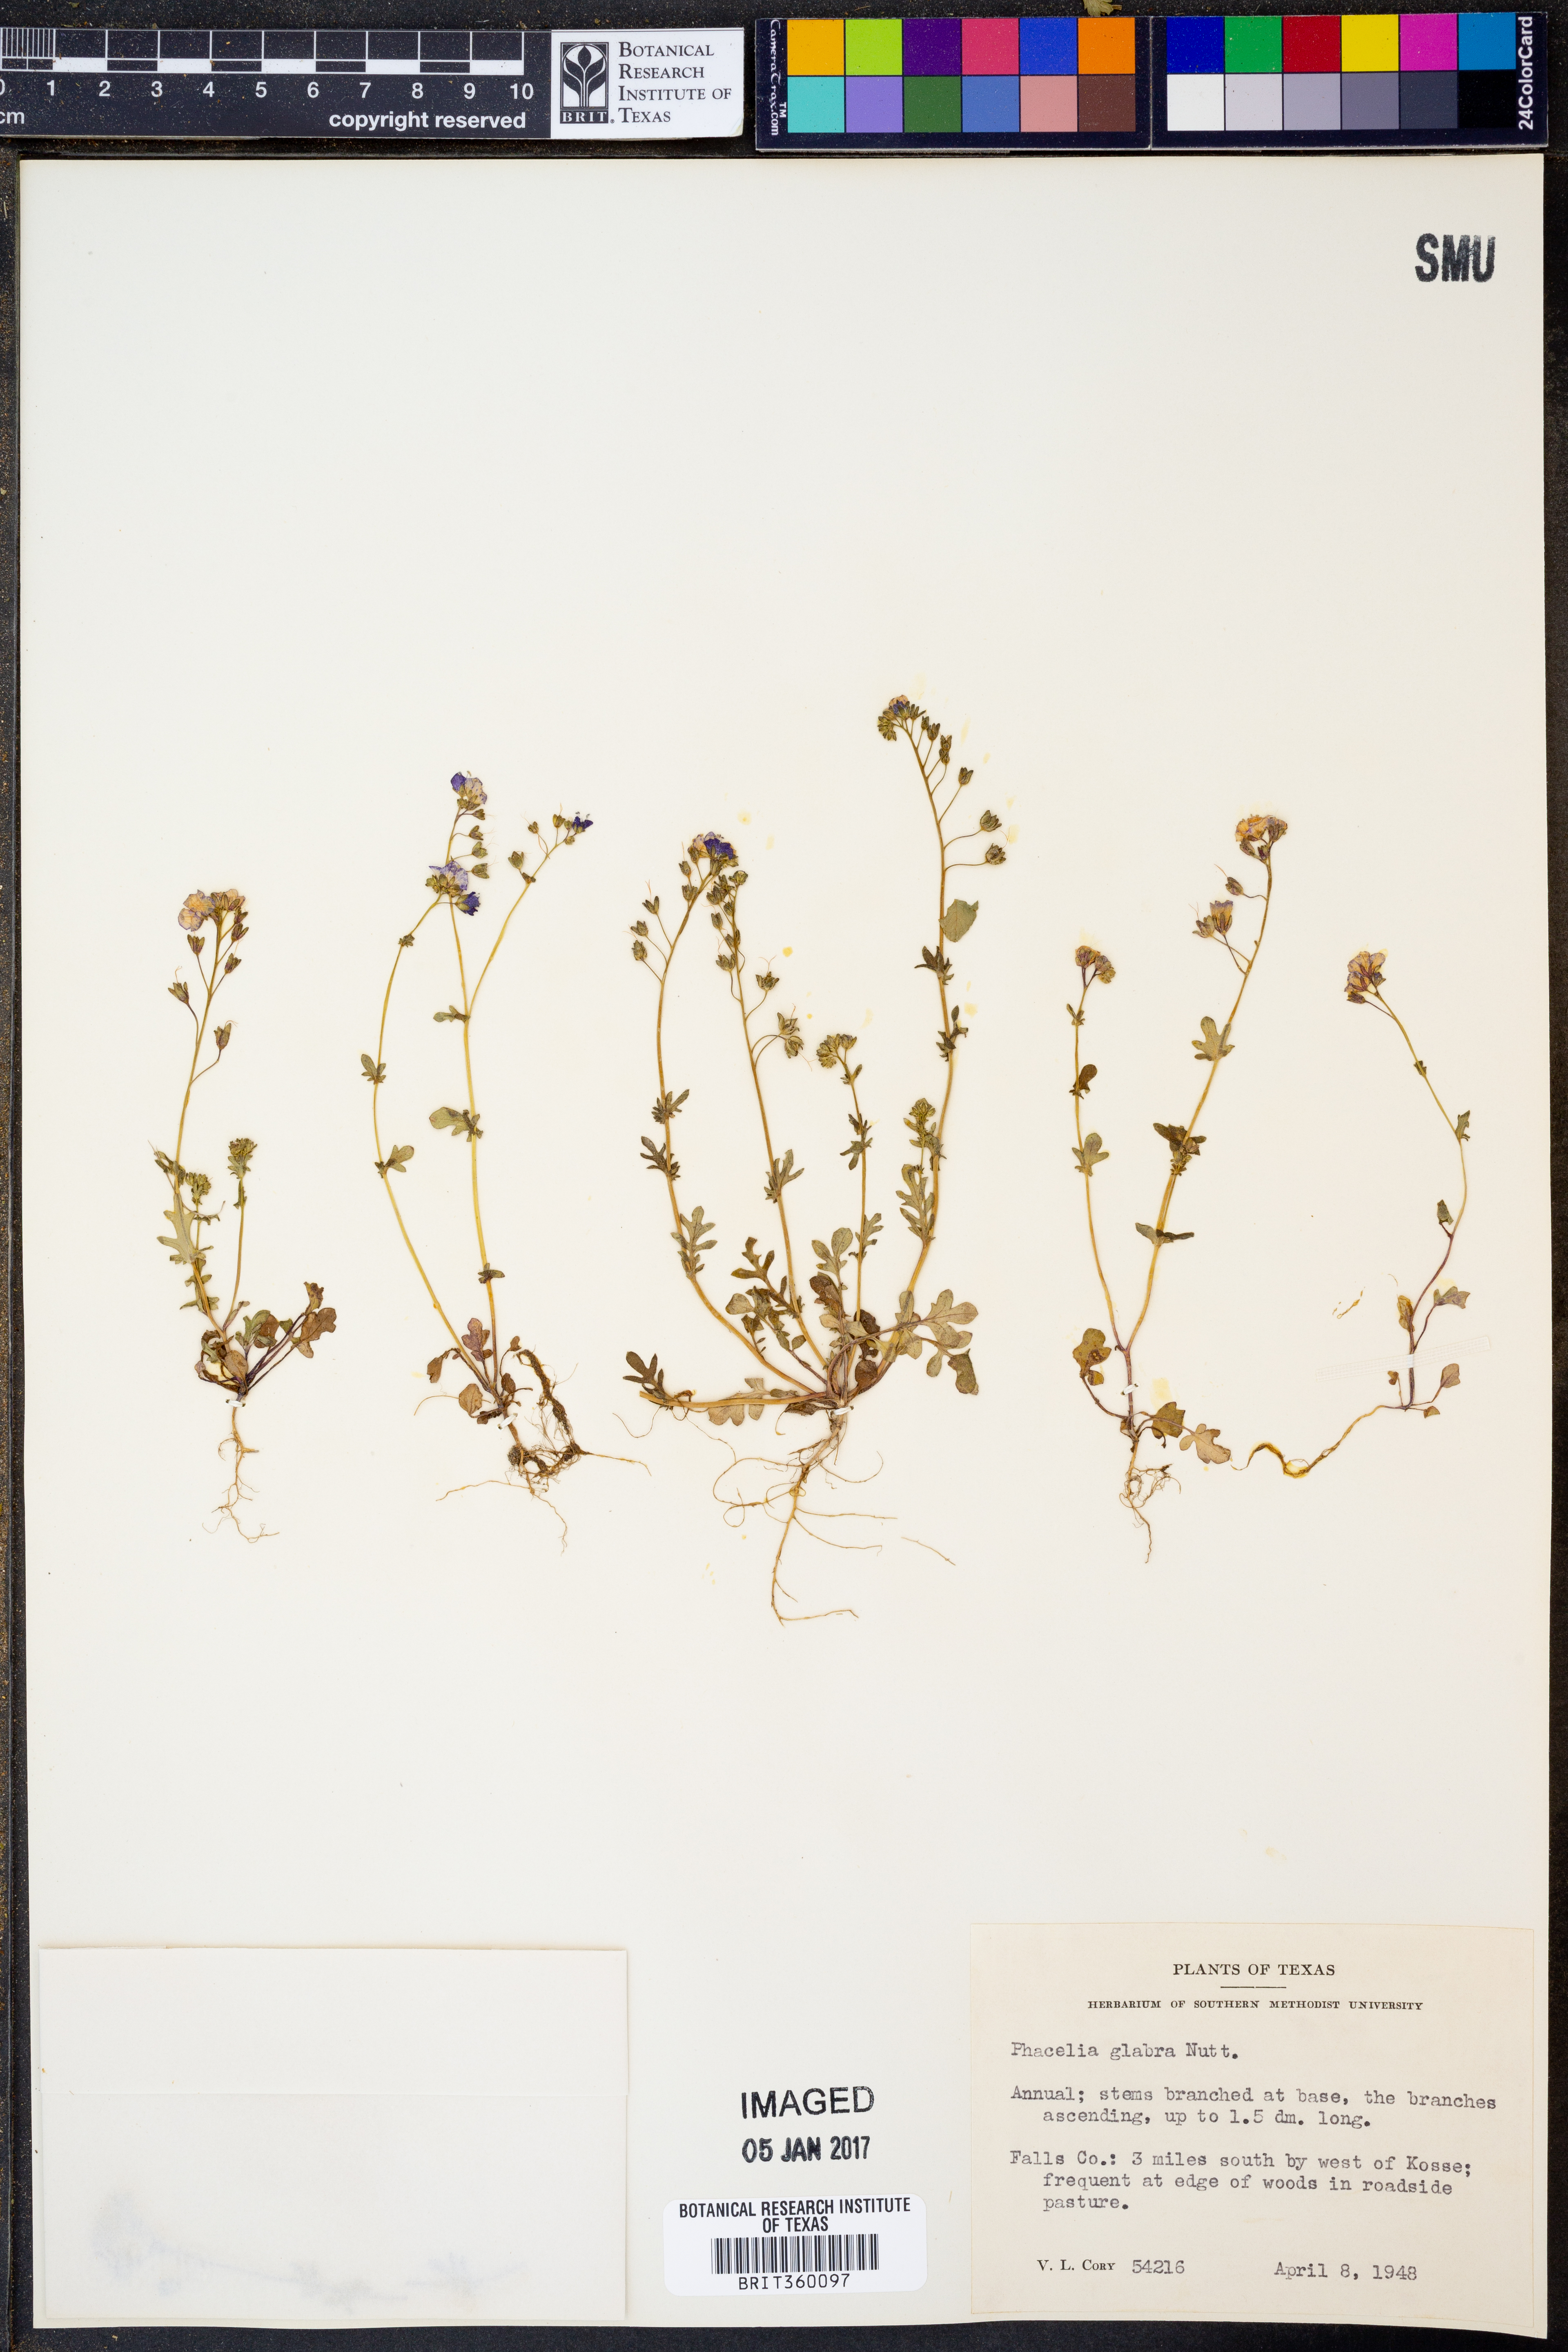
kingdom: Plantae
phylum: Tracheophyta
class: Magnoliopsida
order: Boraginales
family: Hydrophyllaceae
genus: Phacelia
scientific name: Phacelia glabra
